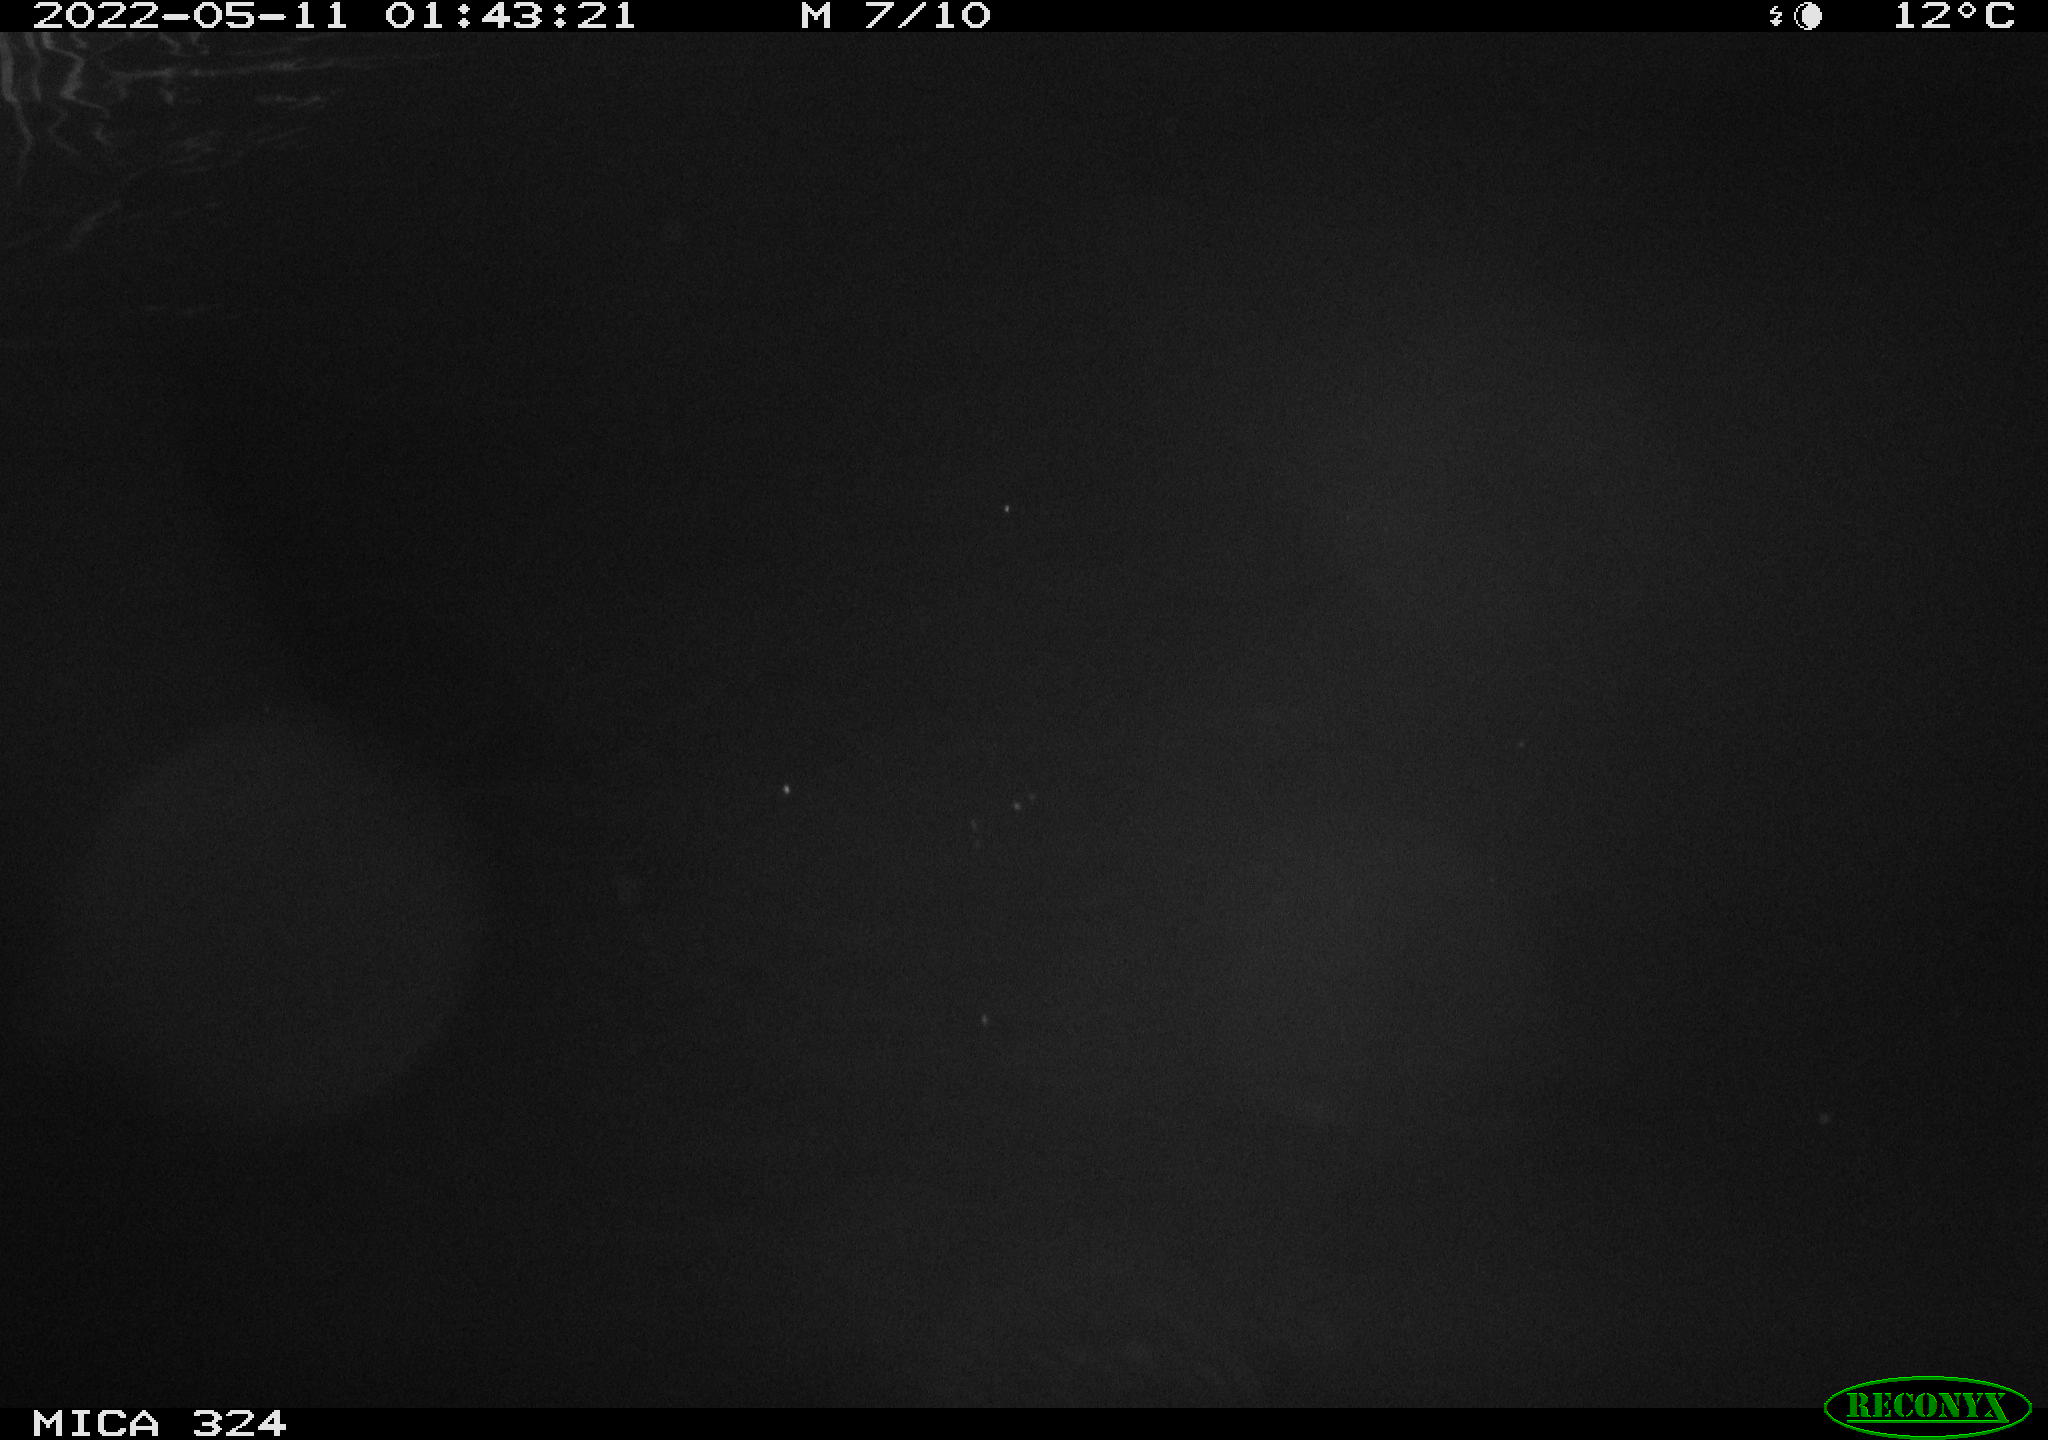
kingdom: Animalia
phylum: Chordata
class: Aves
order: Anseriformes
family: Anatidae
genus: Anas
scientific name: Anas platyrhynchos
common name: Mallard
